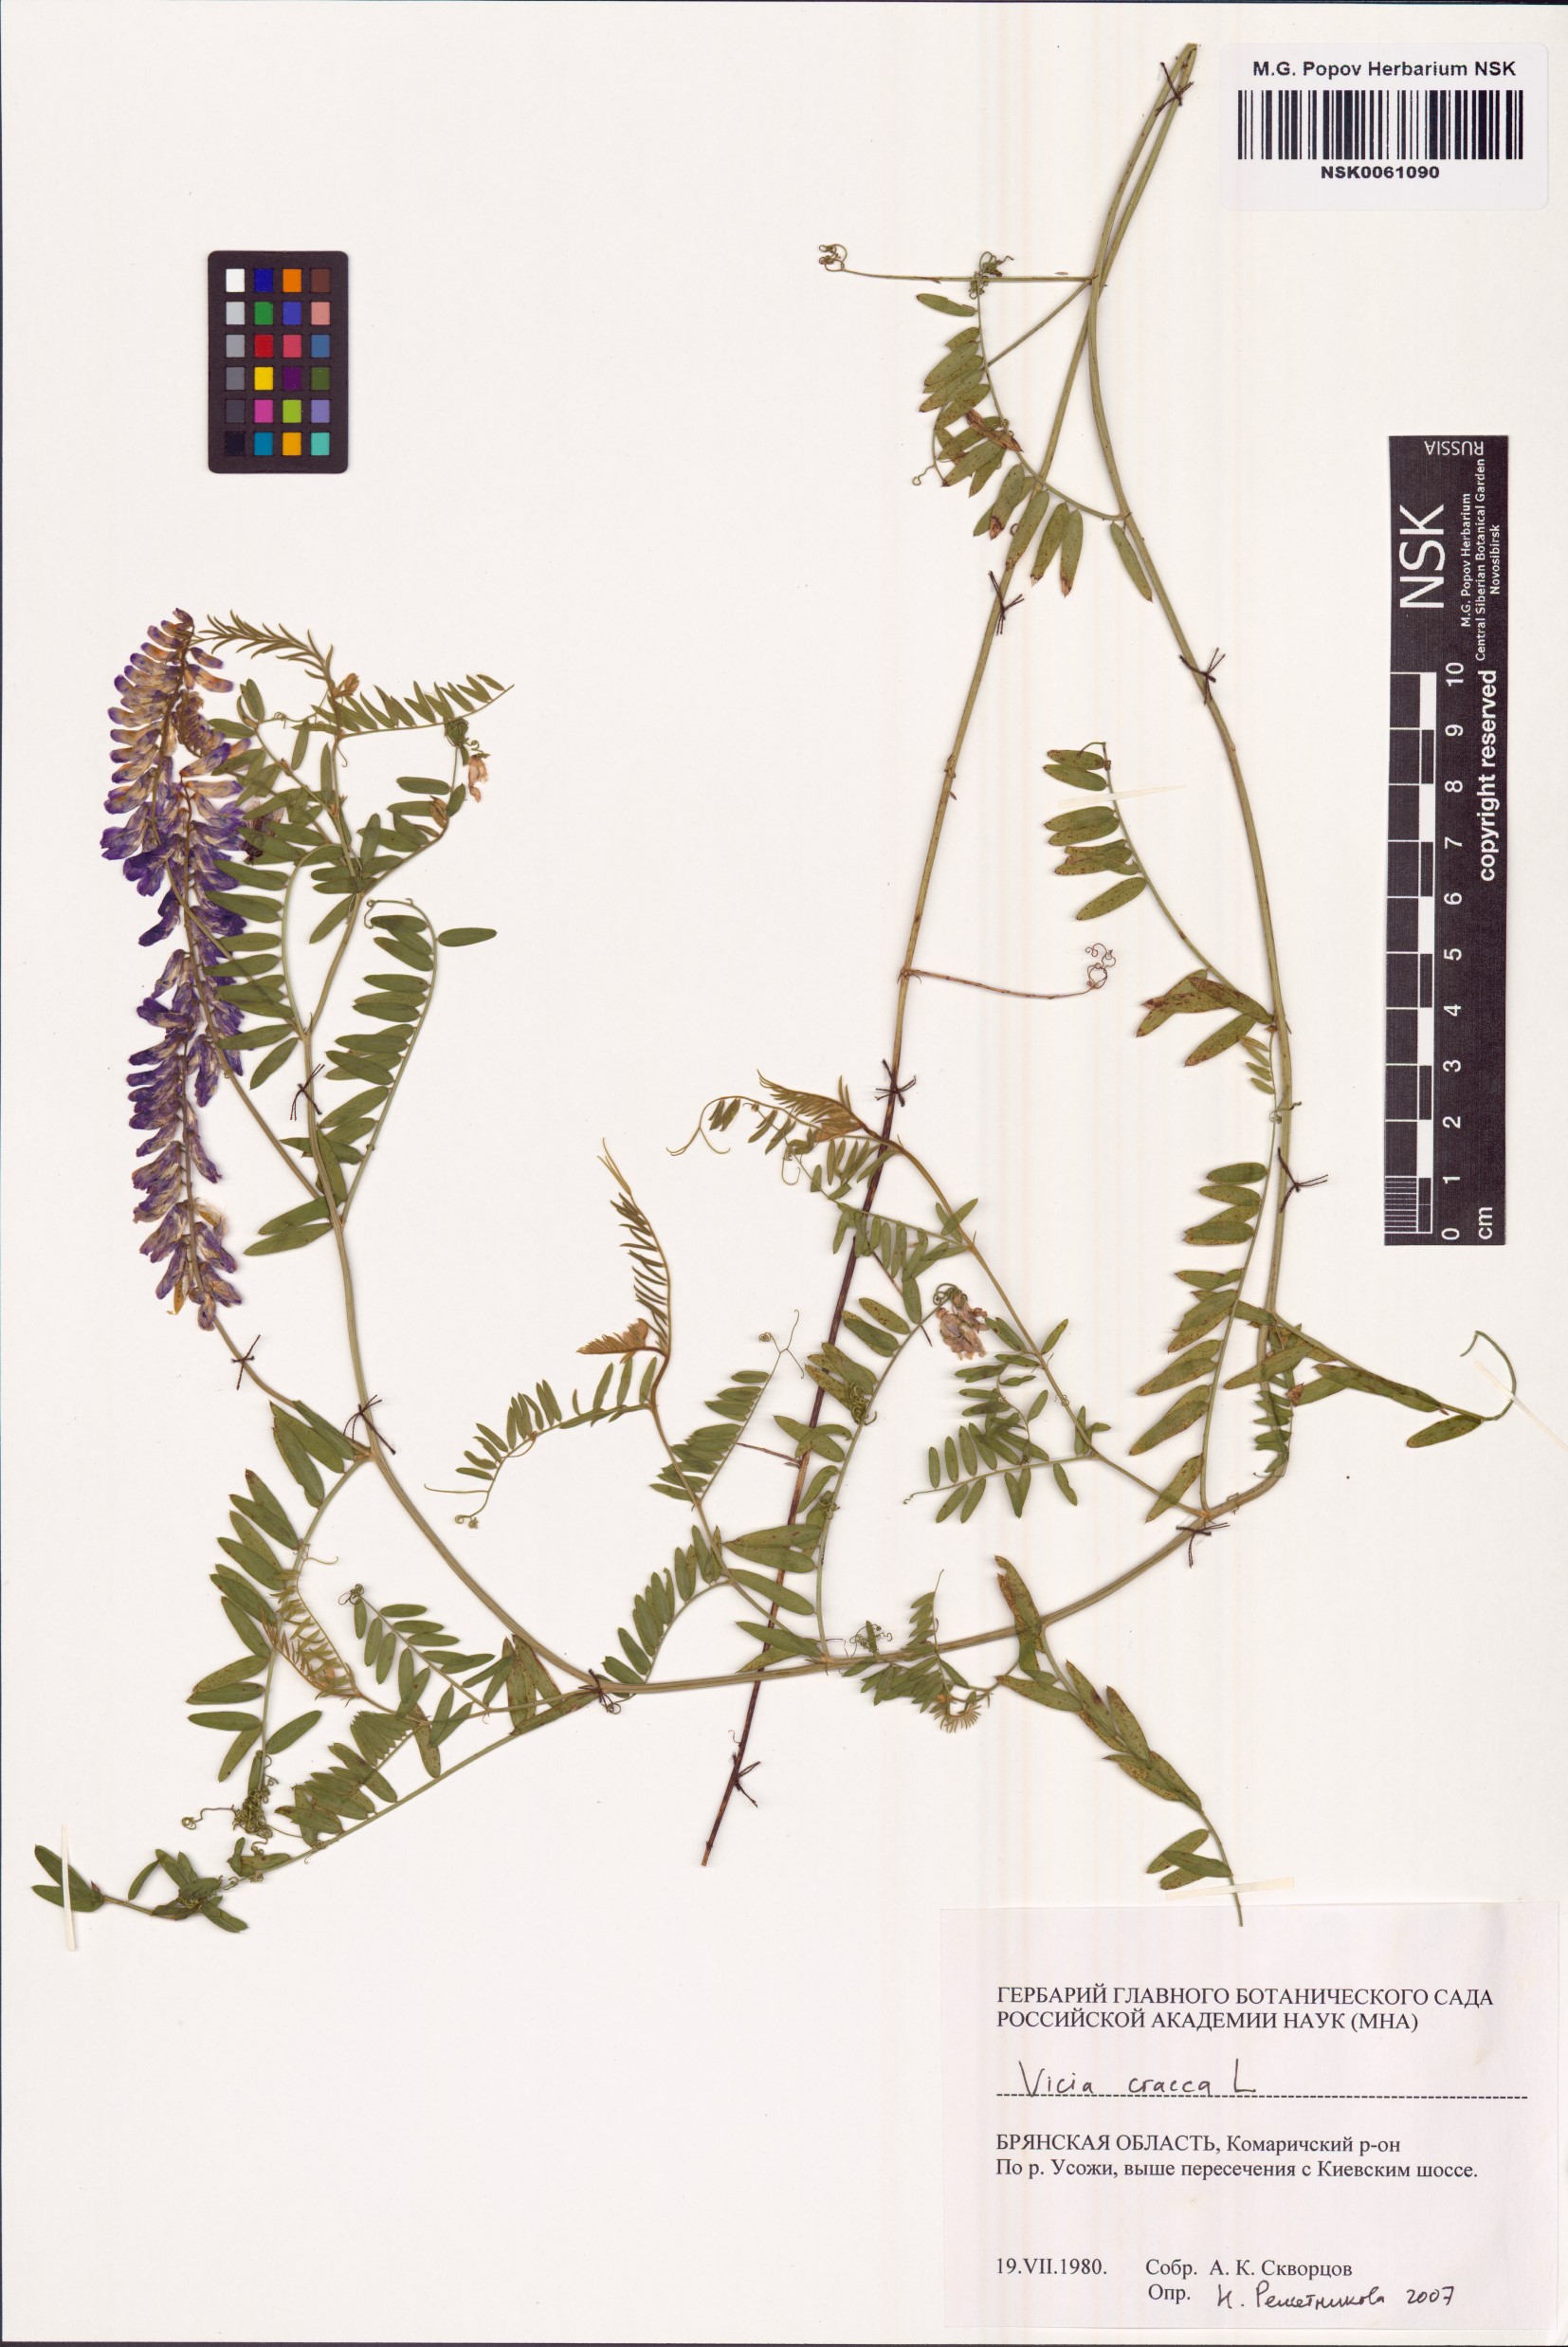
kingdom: Plantae
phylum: Tracheophyta
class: Magnoliopsida
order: Fabales
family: Fabaceae
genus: Vicia
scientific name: Vicia cracca
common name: Bird vetch
